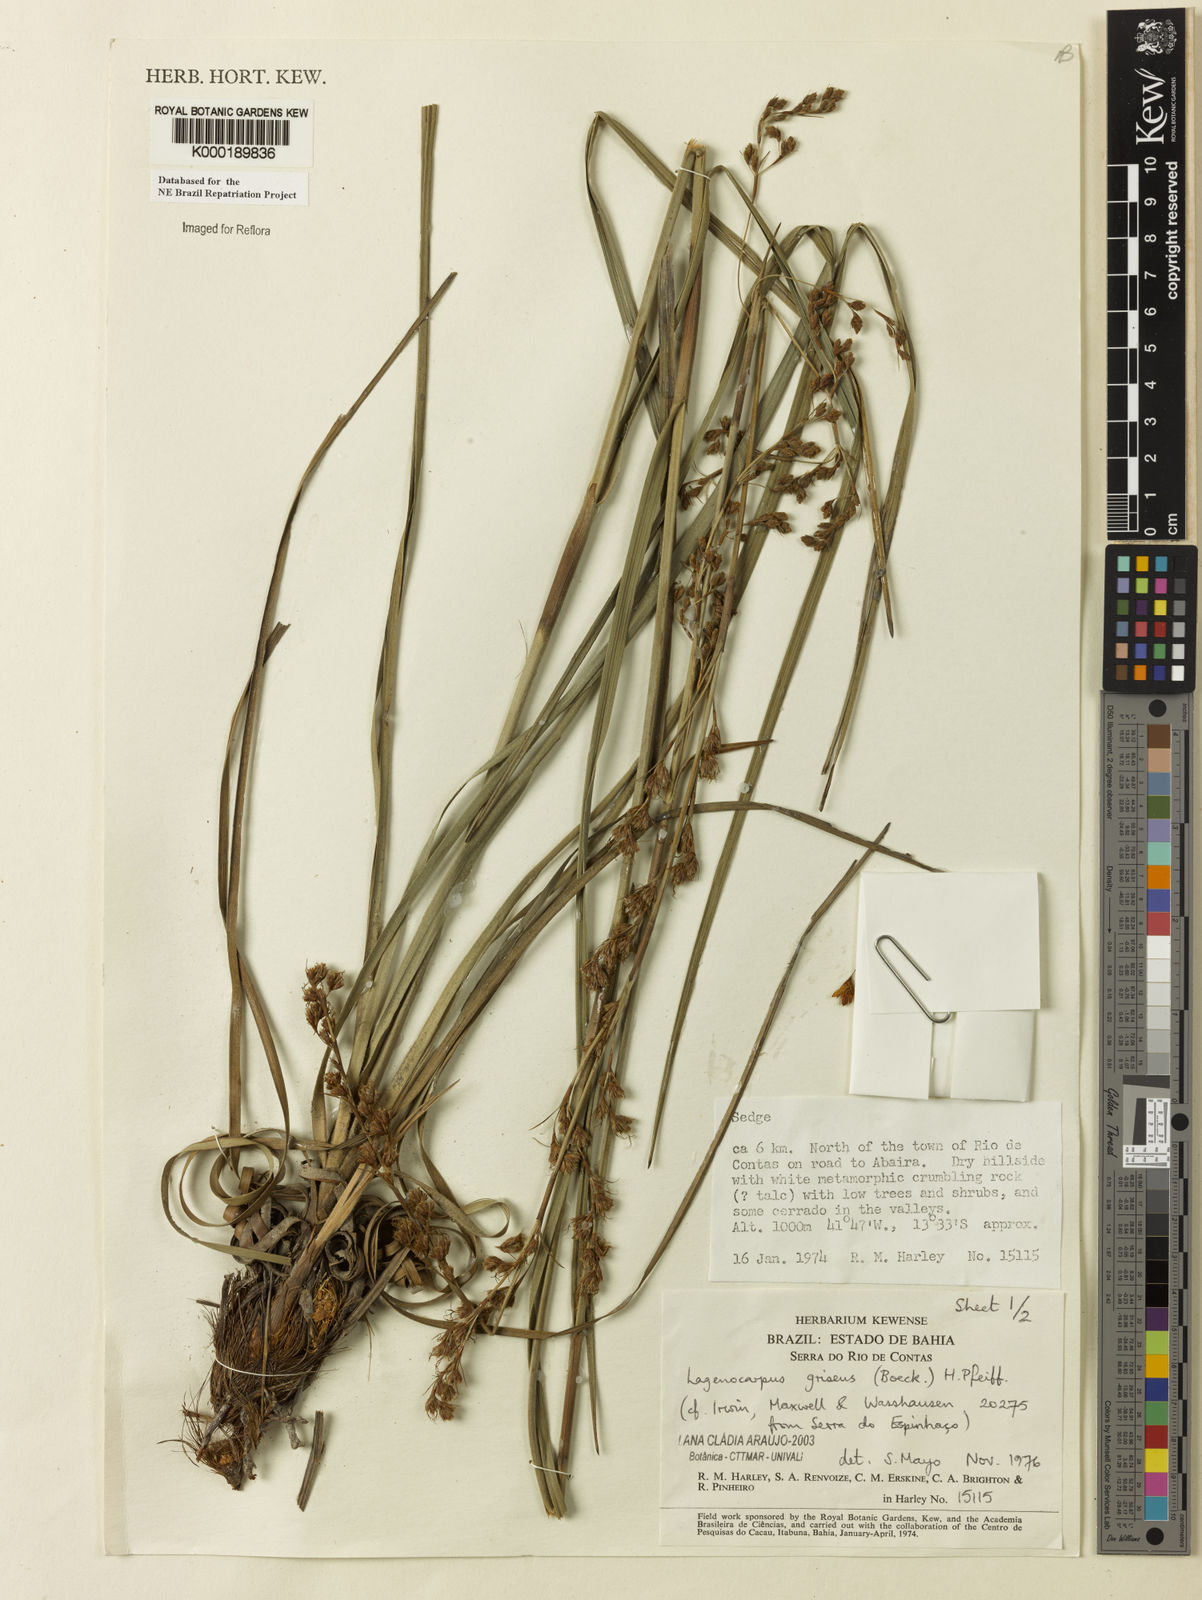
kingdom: Plantae
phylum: Tracheophyta
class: Liliopsida
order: Poales
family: Cyperaceae
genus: Lagenocarpus
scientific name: Lagenocarpus griseus
